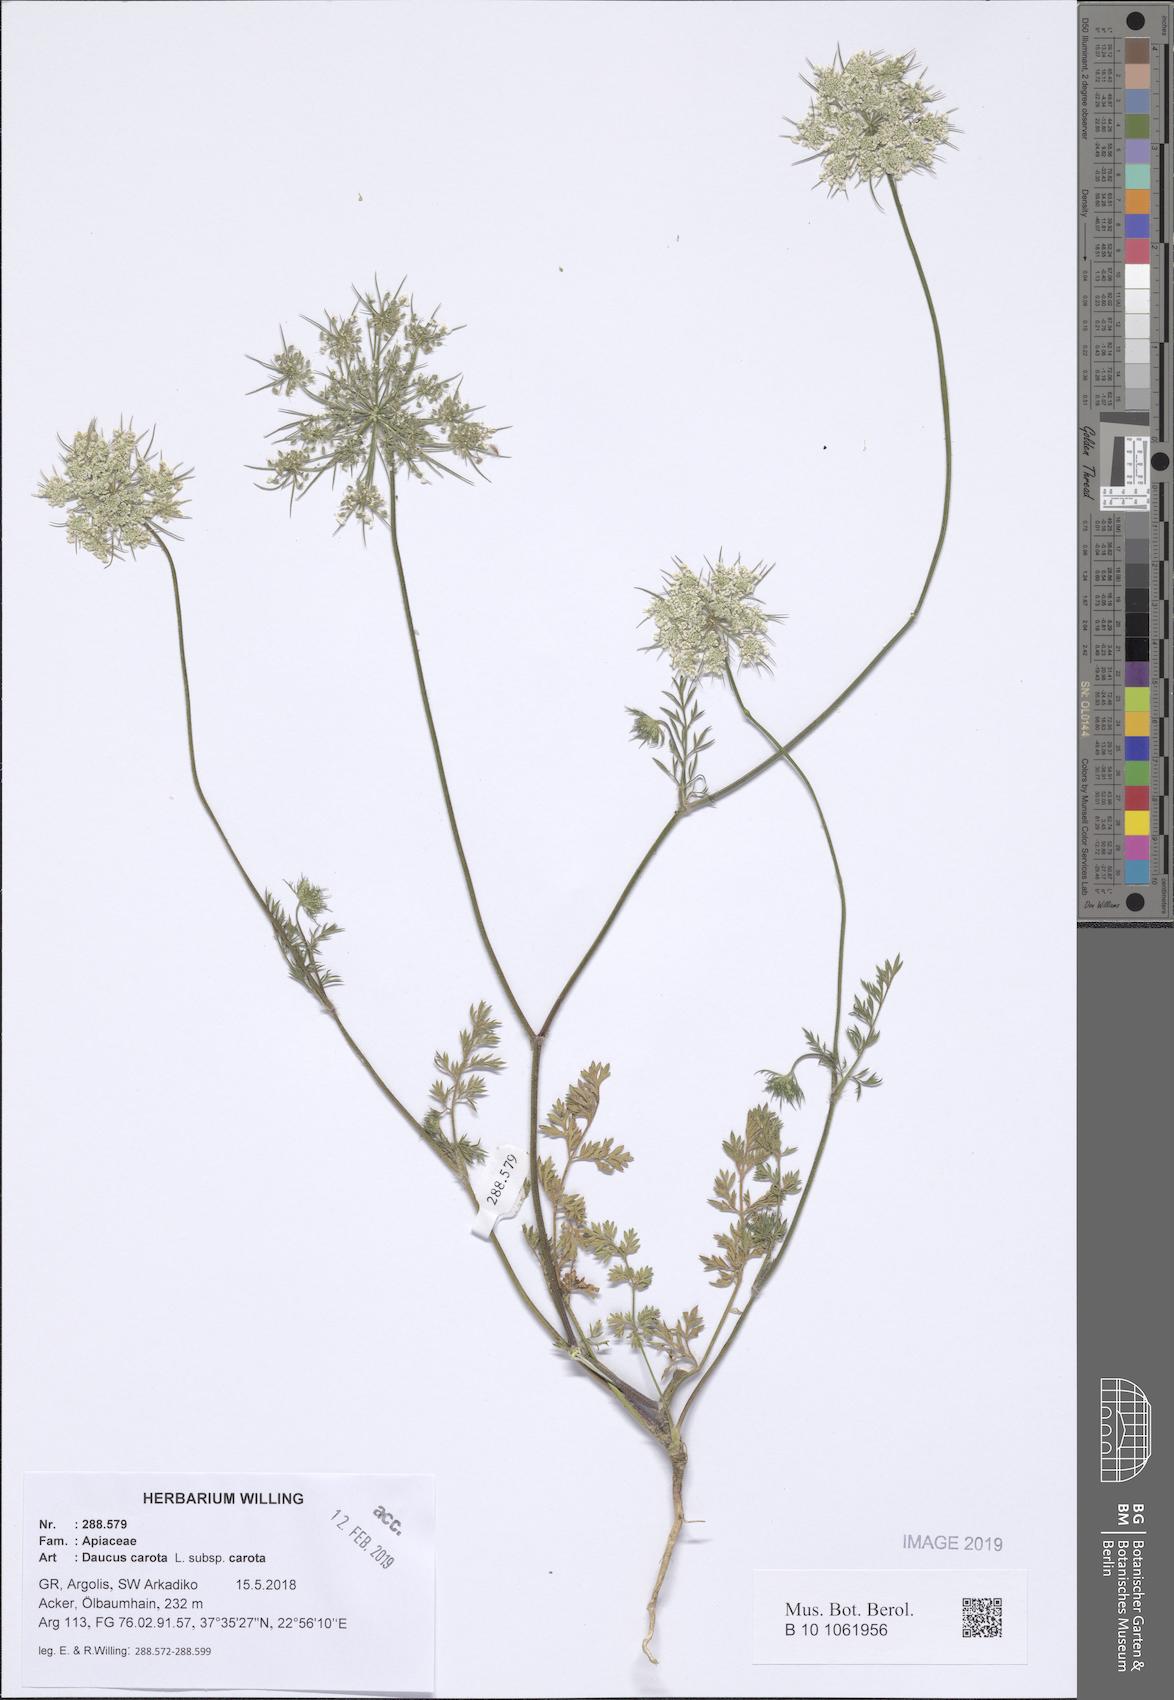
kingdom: Plantae
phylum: Tracheophyta
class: Magnoliopsida
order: Apiales
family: Apiaceae
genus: Daucus
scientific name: Daucus carota
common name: Wild carrot
